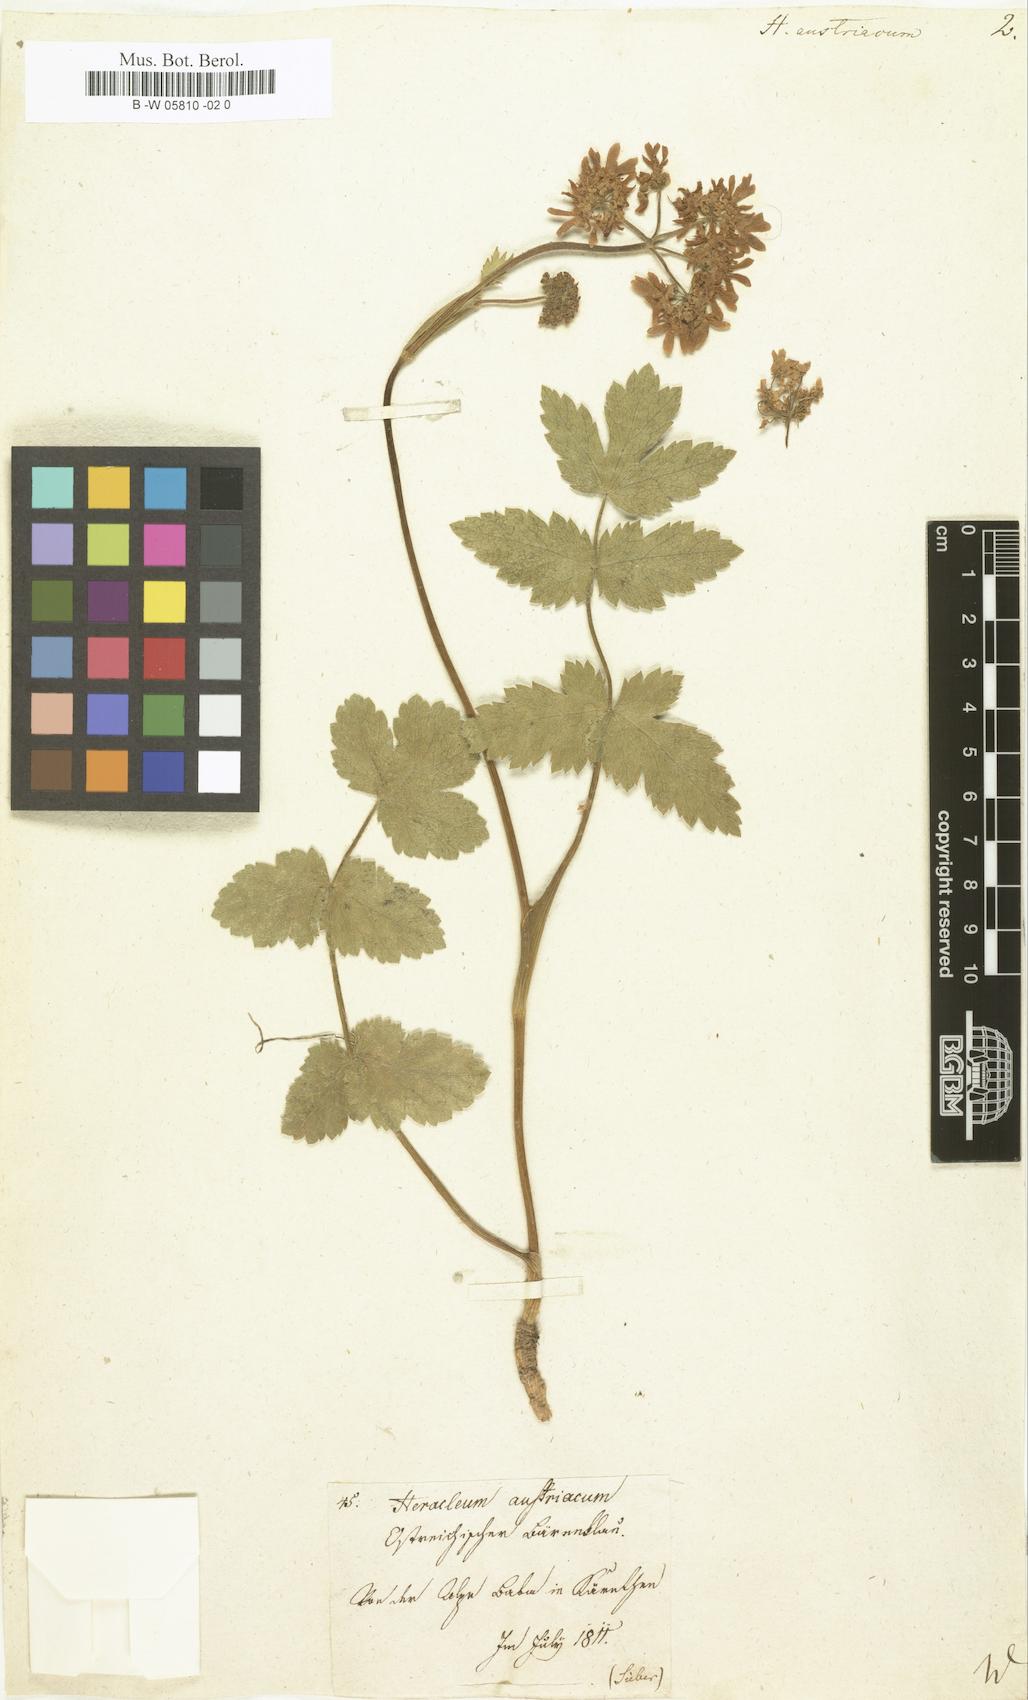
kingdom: Plantae
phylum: Tracheophyta
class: Magnoliopsida
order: Apiales
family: Apiaceae
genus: Heracleum
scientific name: Heracleum austriacum
